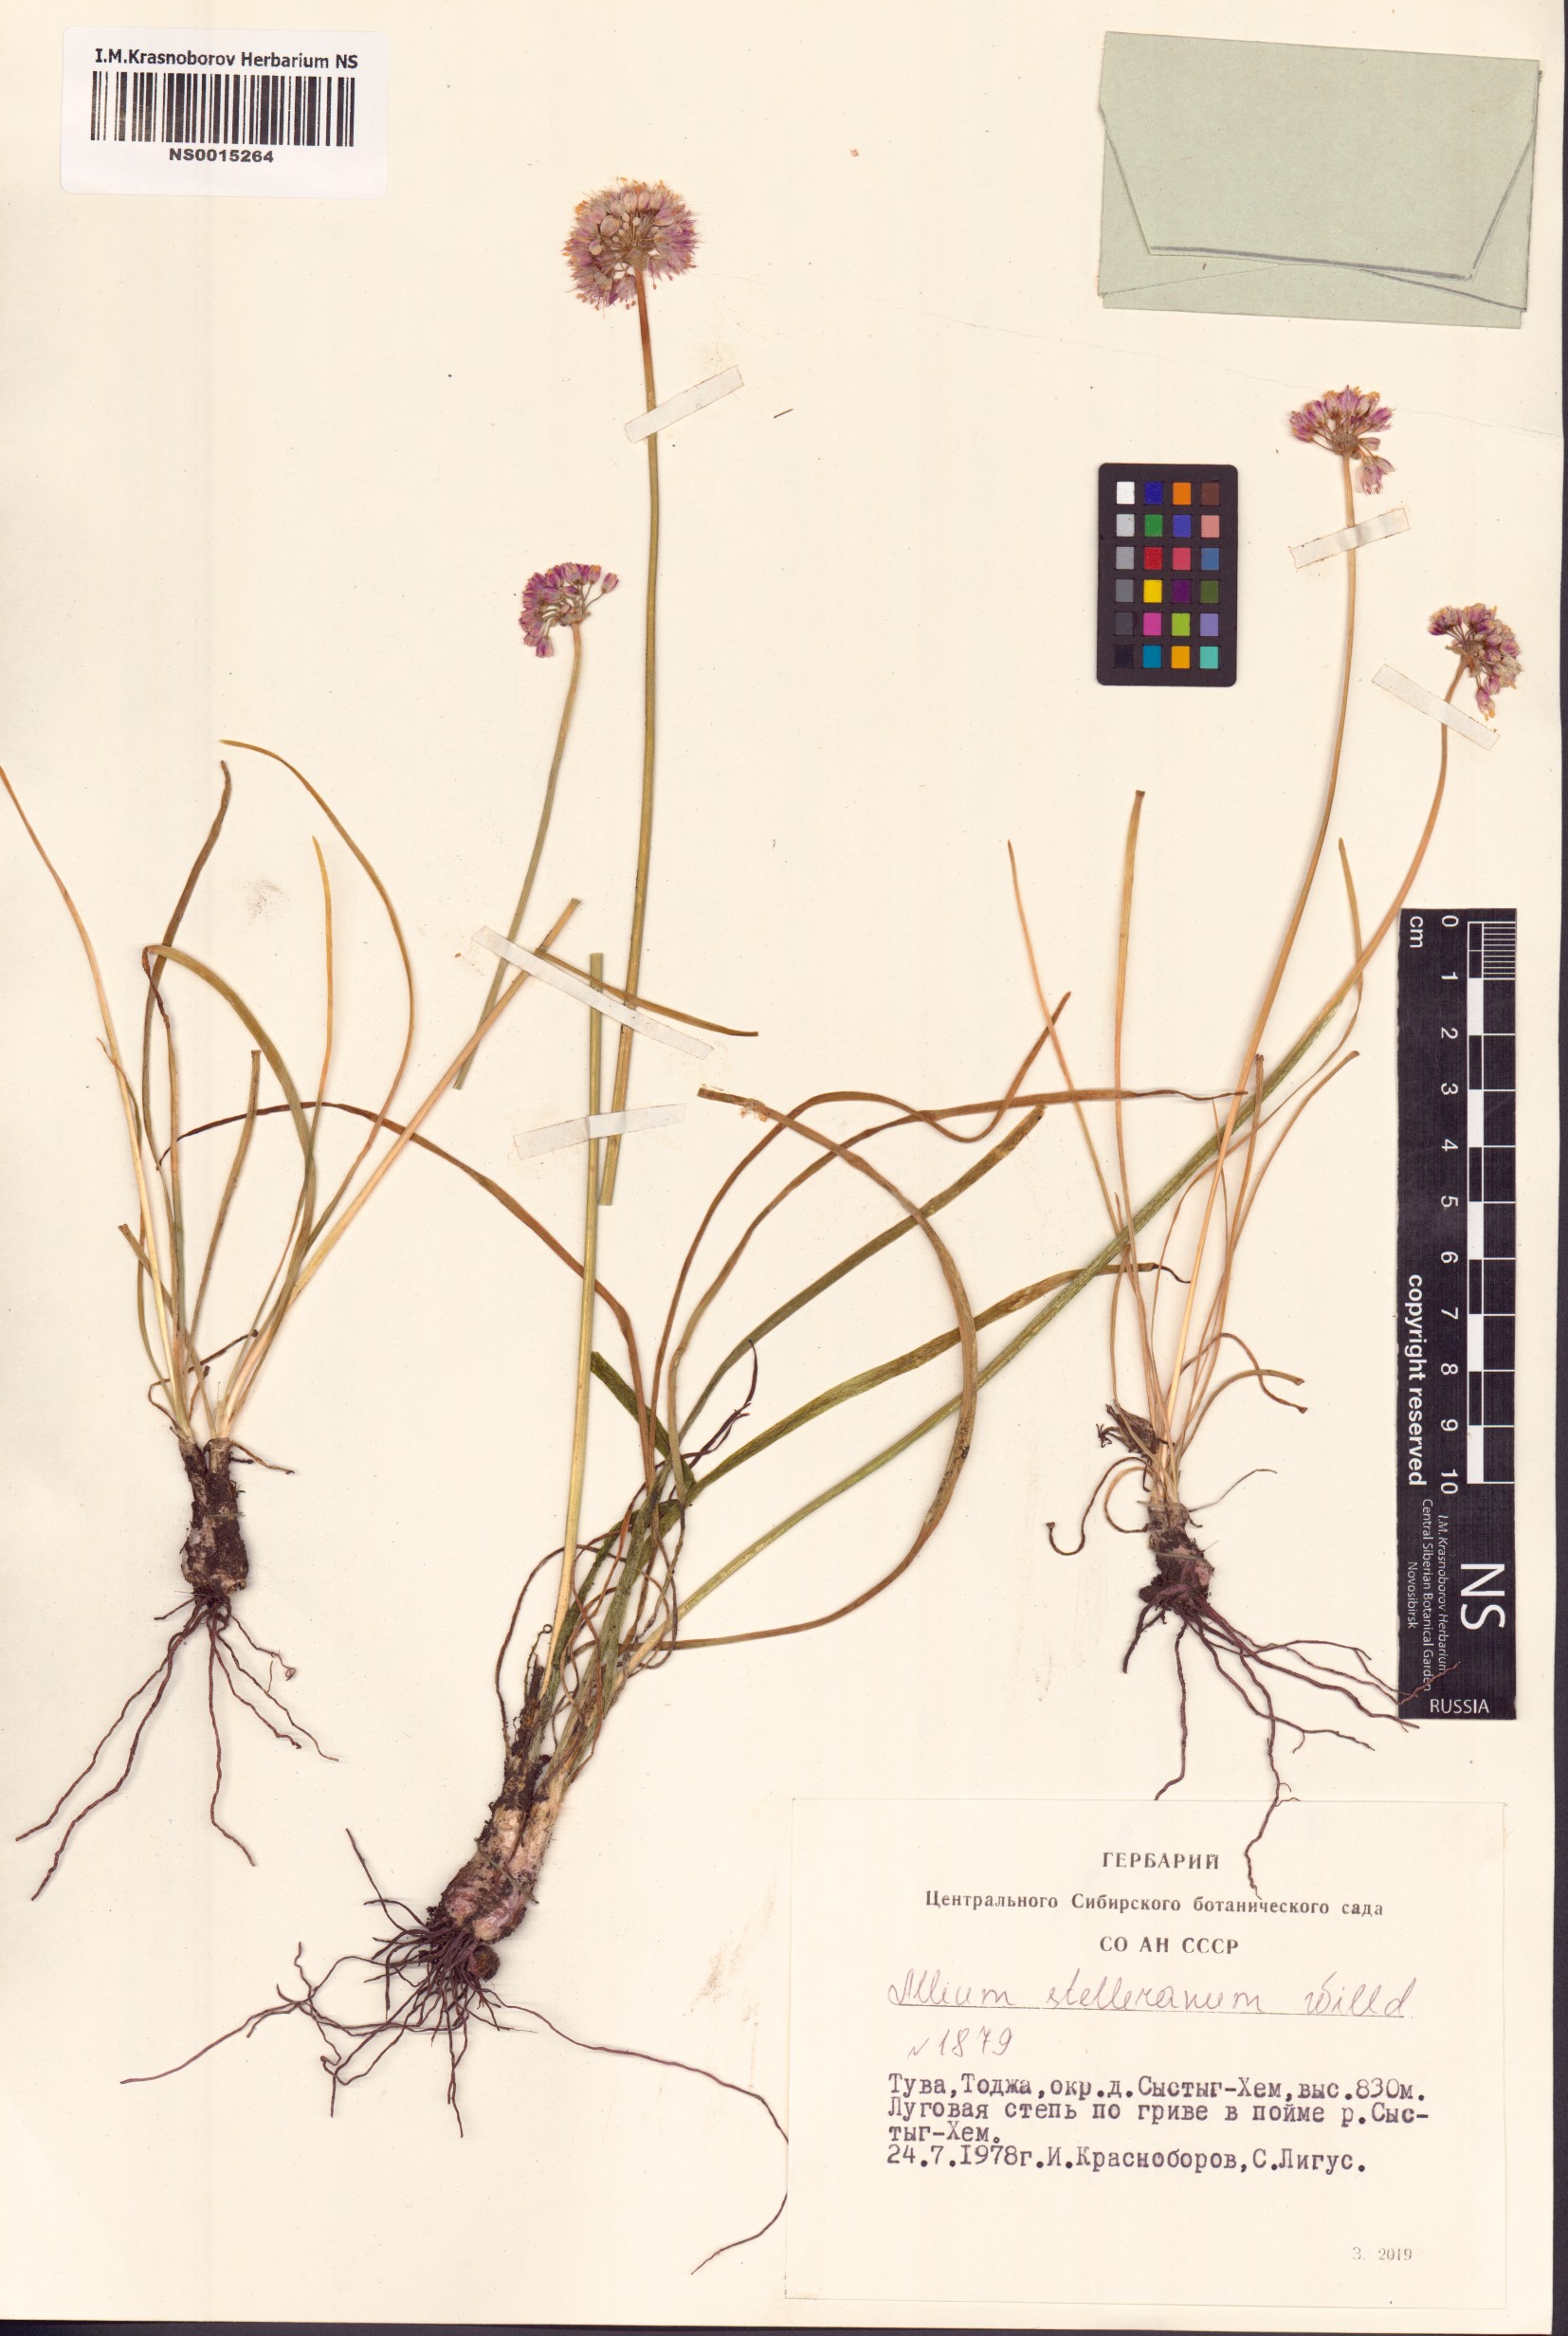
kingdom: Plantae
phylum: Tracheophyta
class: Liliopsida
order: Asparagales
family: Amaryllidaceae
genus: Allium
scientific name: Allium stellerianum
